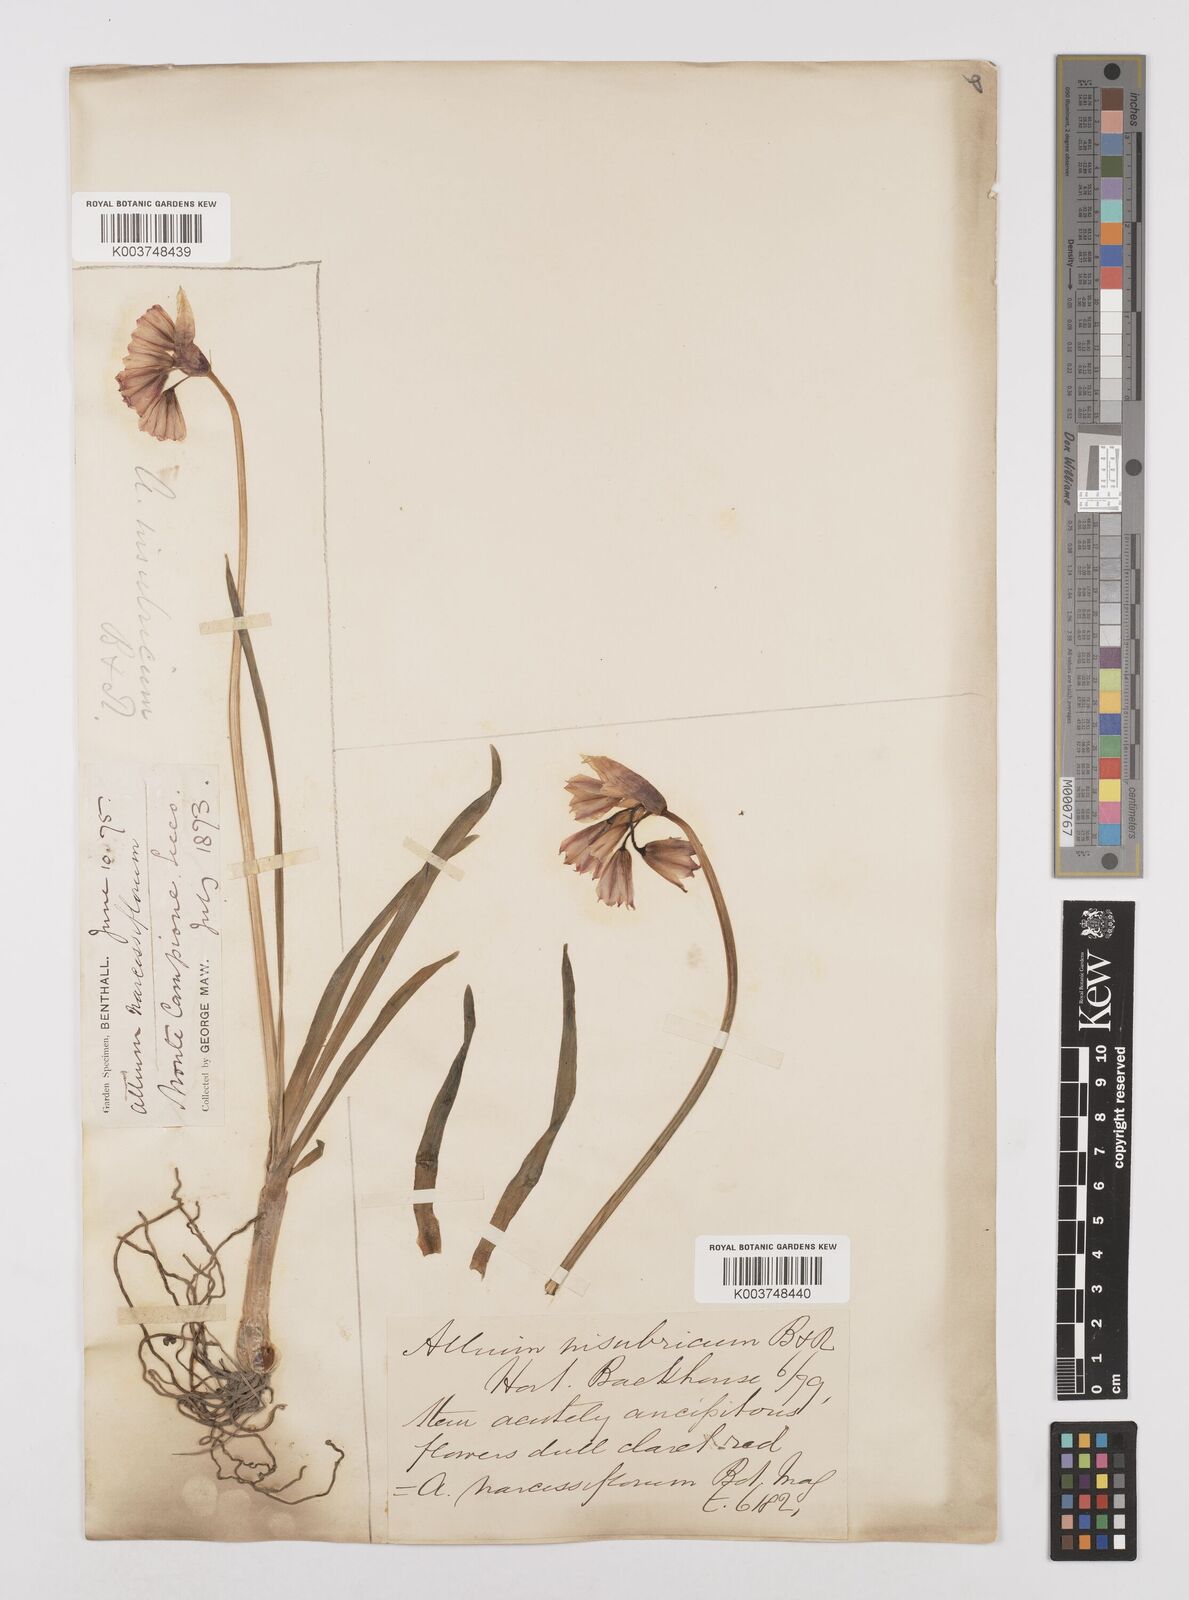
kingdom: Plantae
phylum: Tracheophyta
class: Liliopsida
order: Asparagales
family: Amaryllidaceae
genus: Allium
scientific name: Allium insubricum
